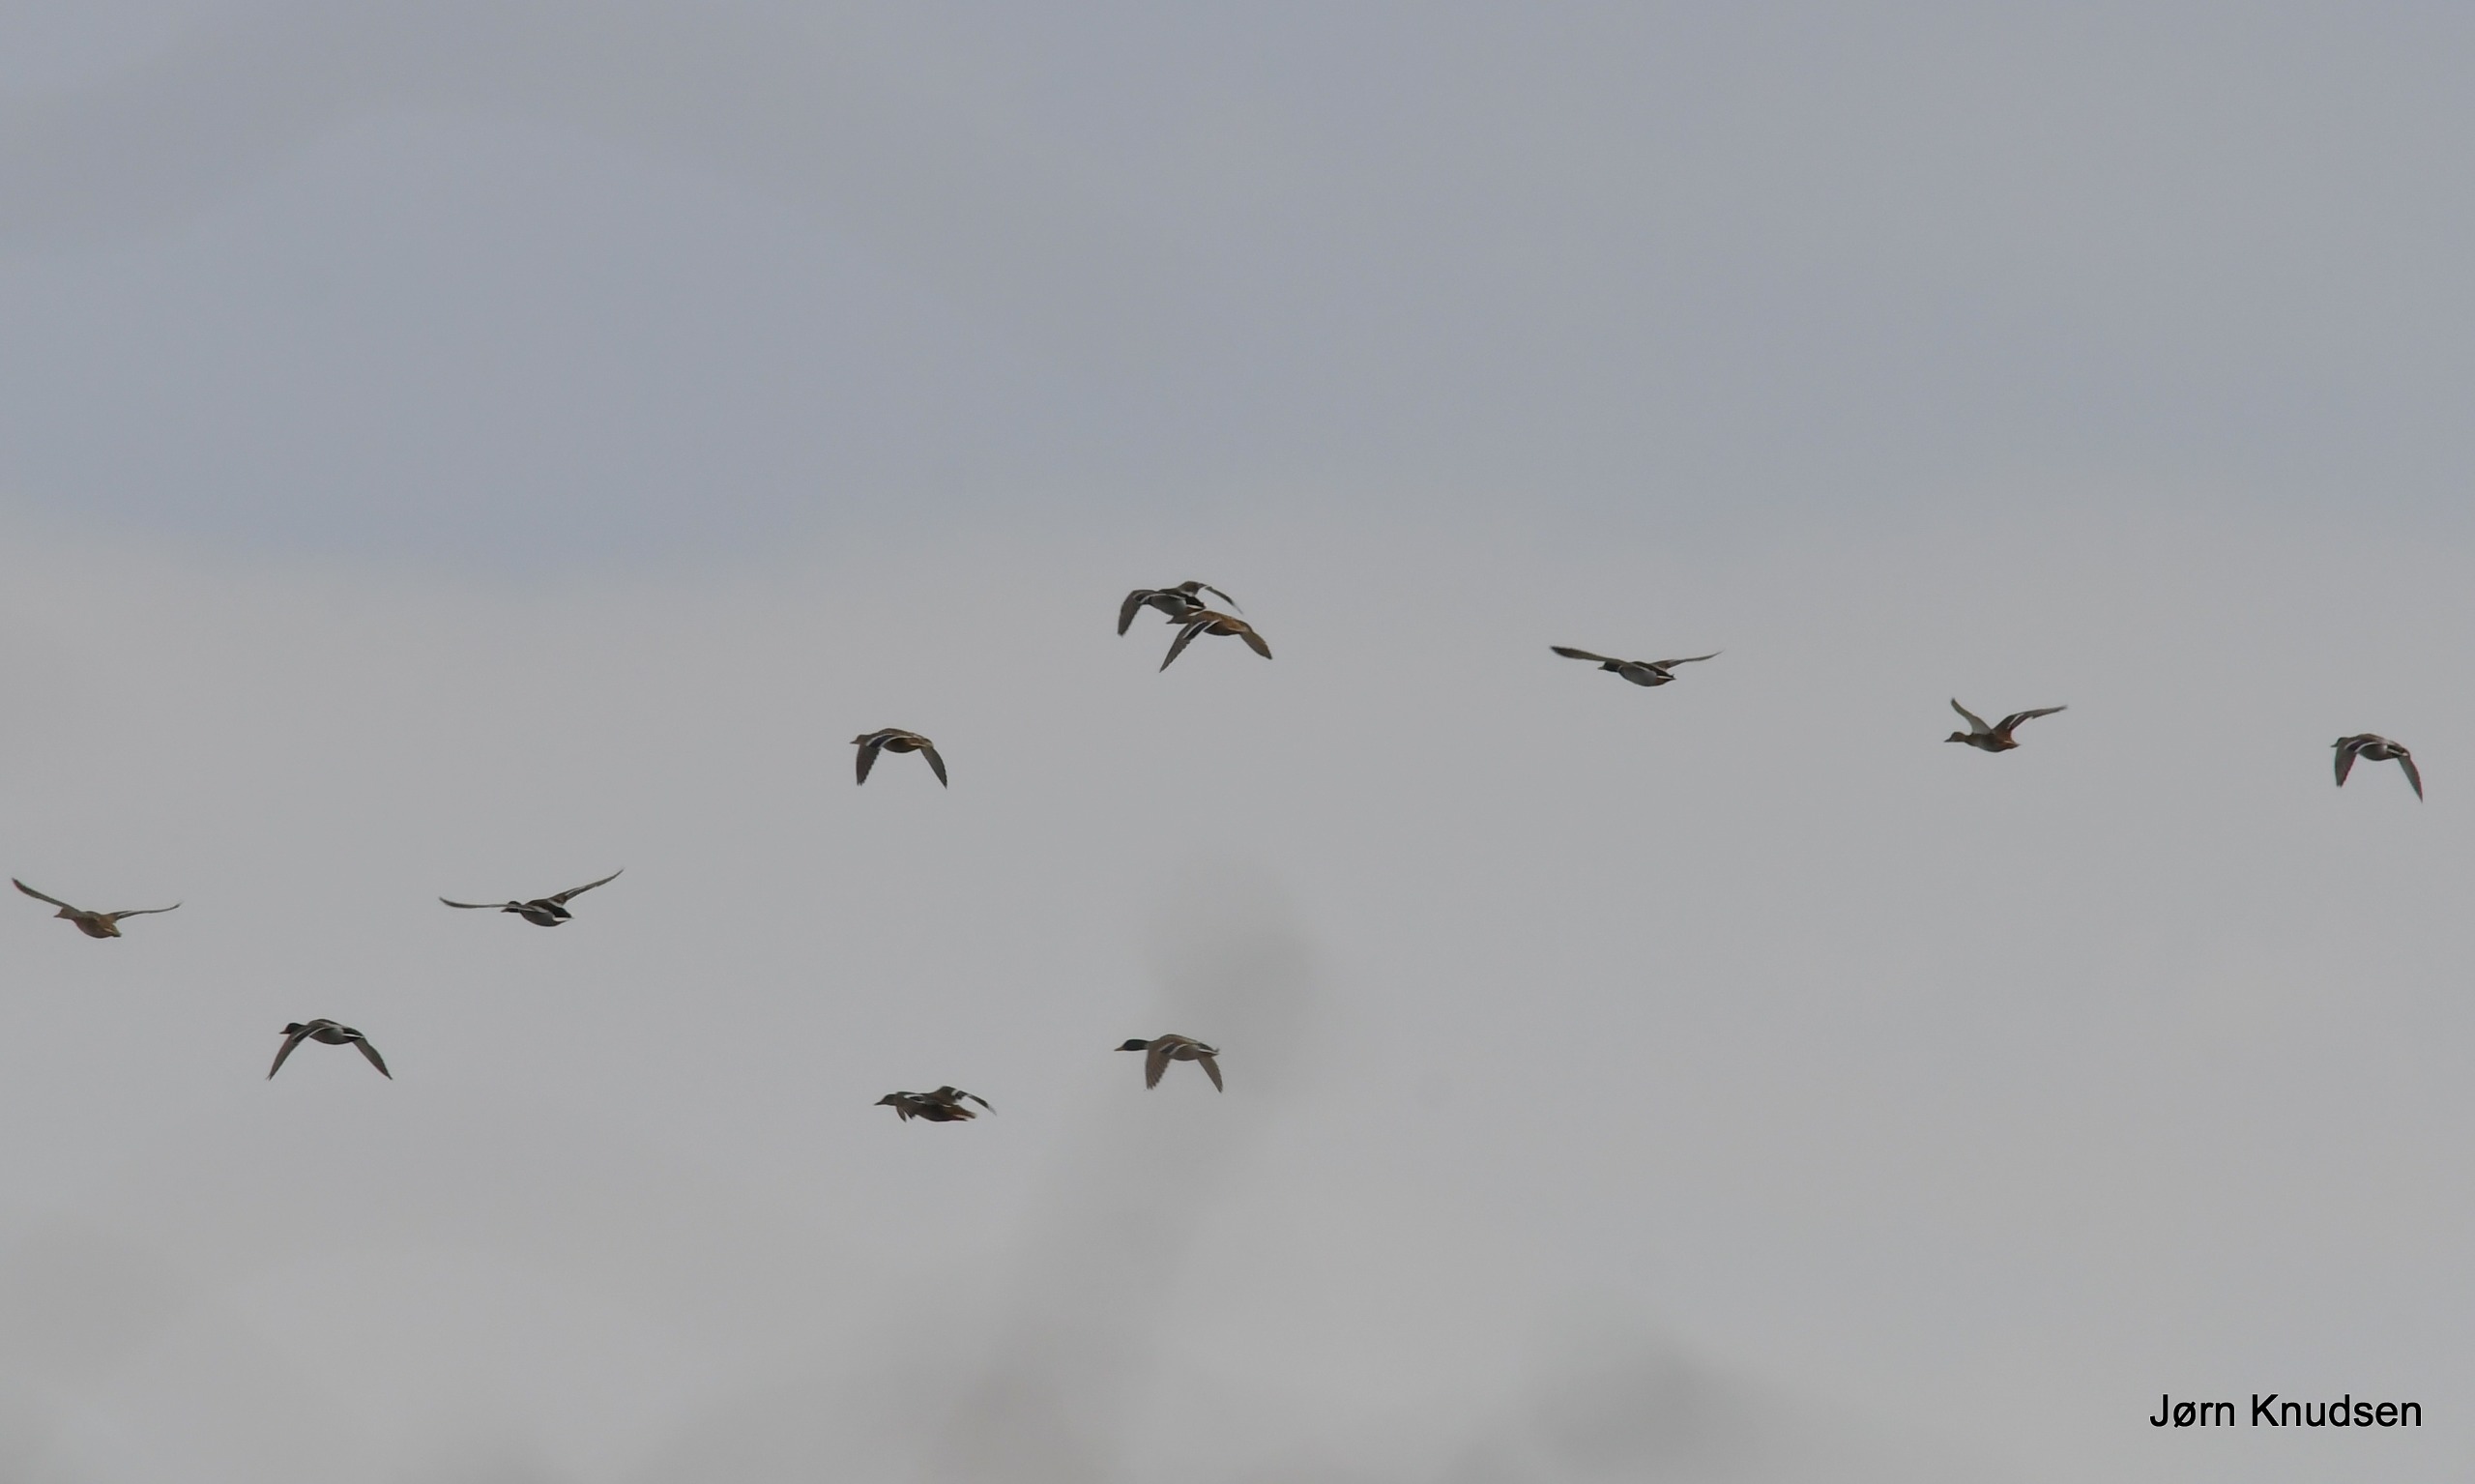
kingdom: Animalia
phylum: Chordata
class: Aves
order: Anseriformes
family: Anatidae
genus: Anas
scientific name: Anas platyrhynchos
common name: Gråand
